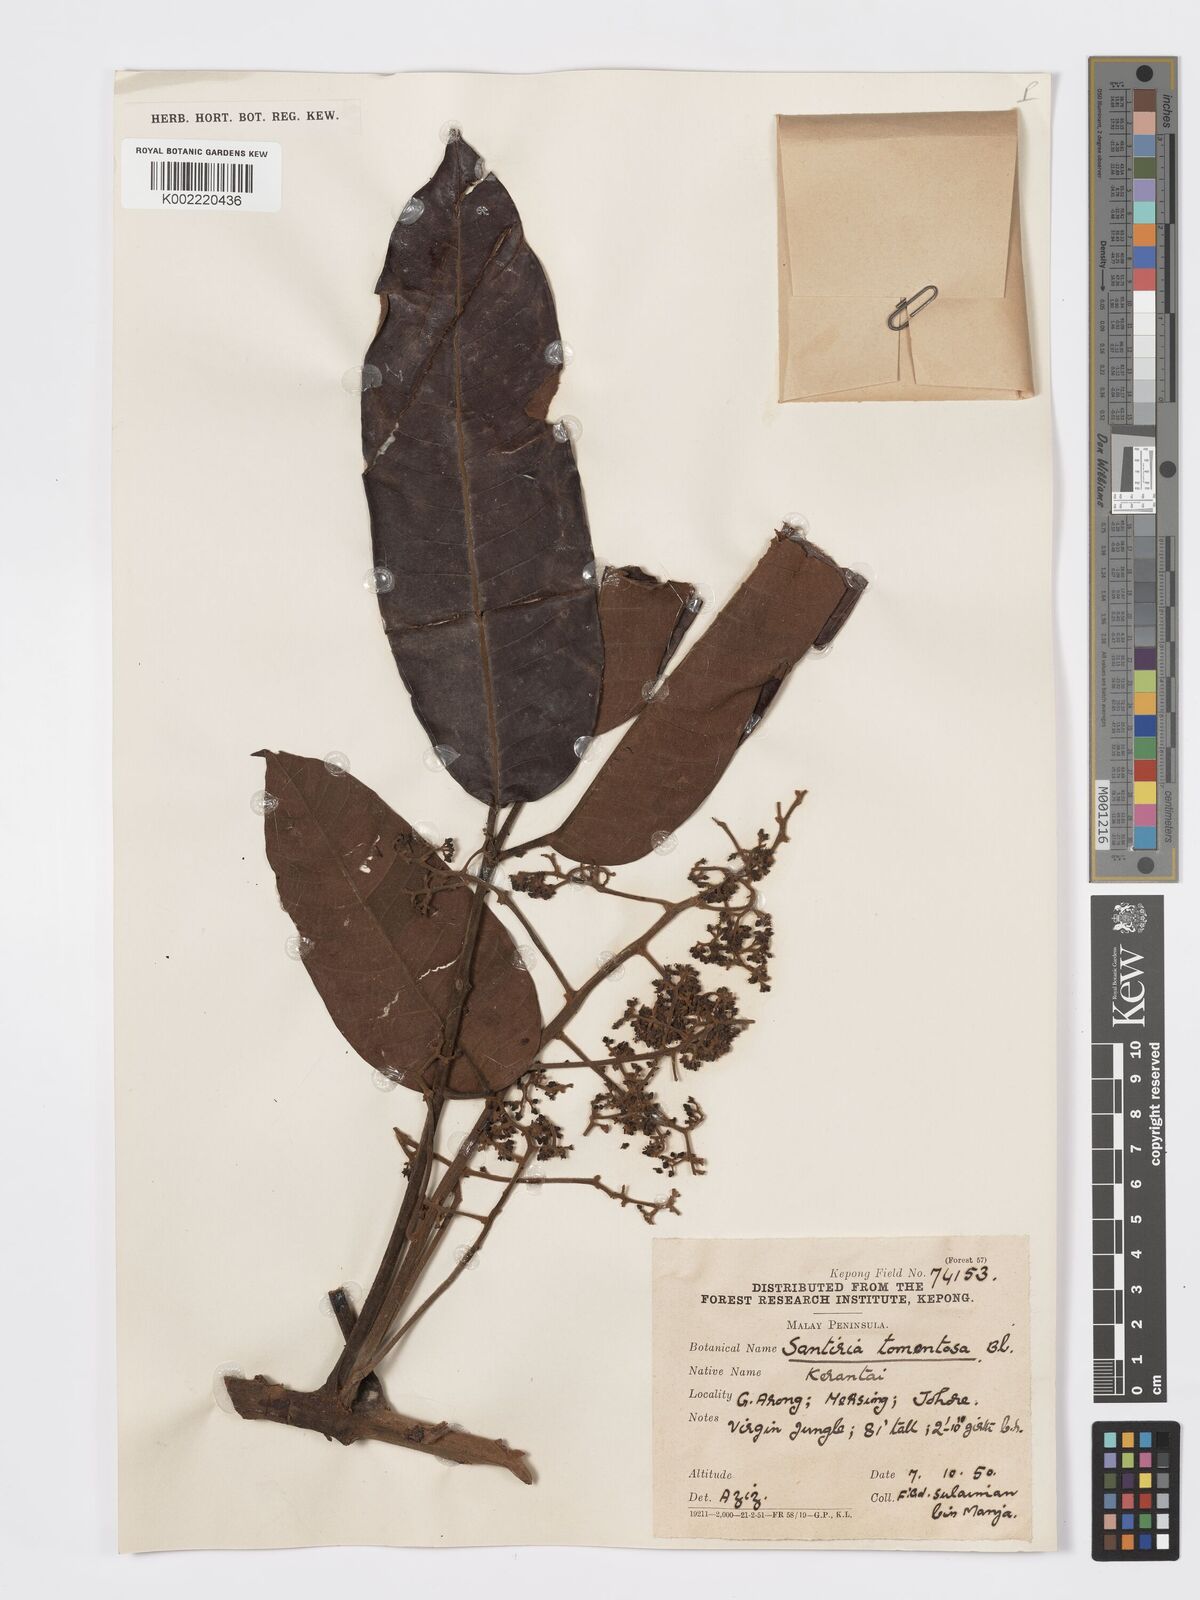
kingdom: Plantae
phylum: Tracheophyta
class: Magnoliopsida
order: Sapindales
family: Burseraceae
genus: Santiria
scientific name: Santiria tomentosa
